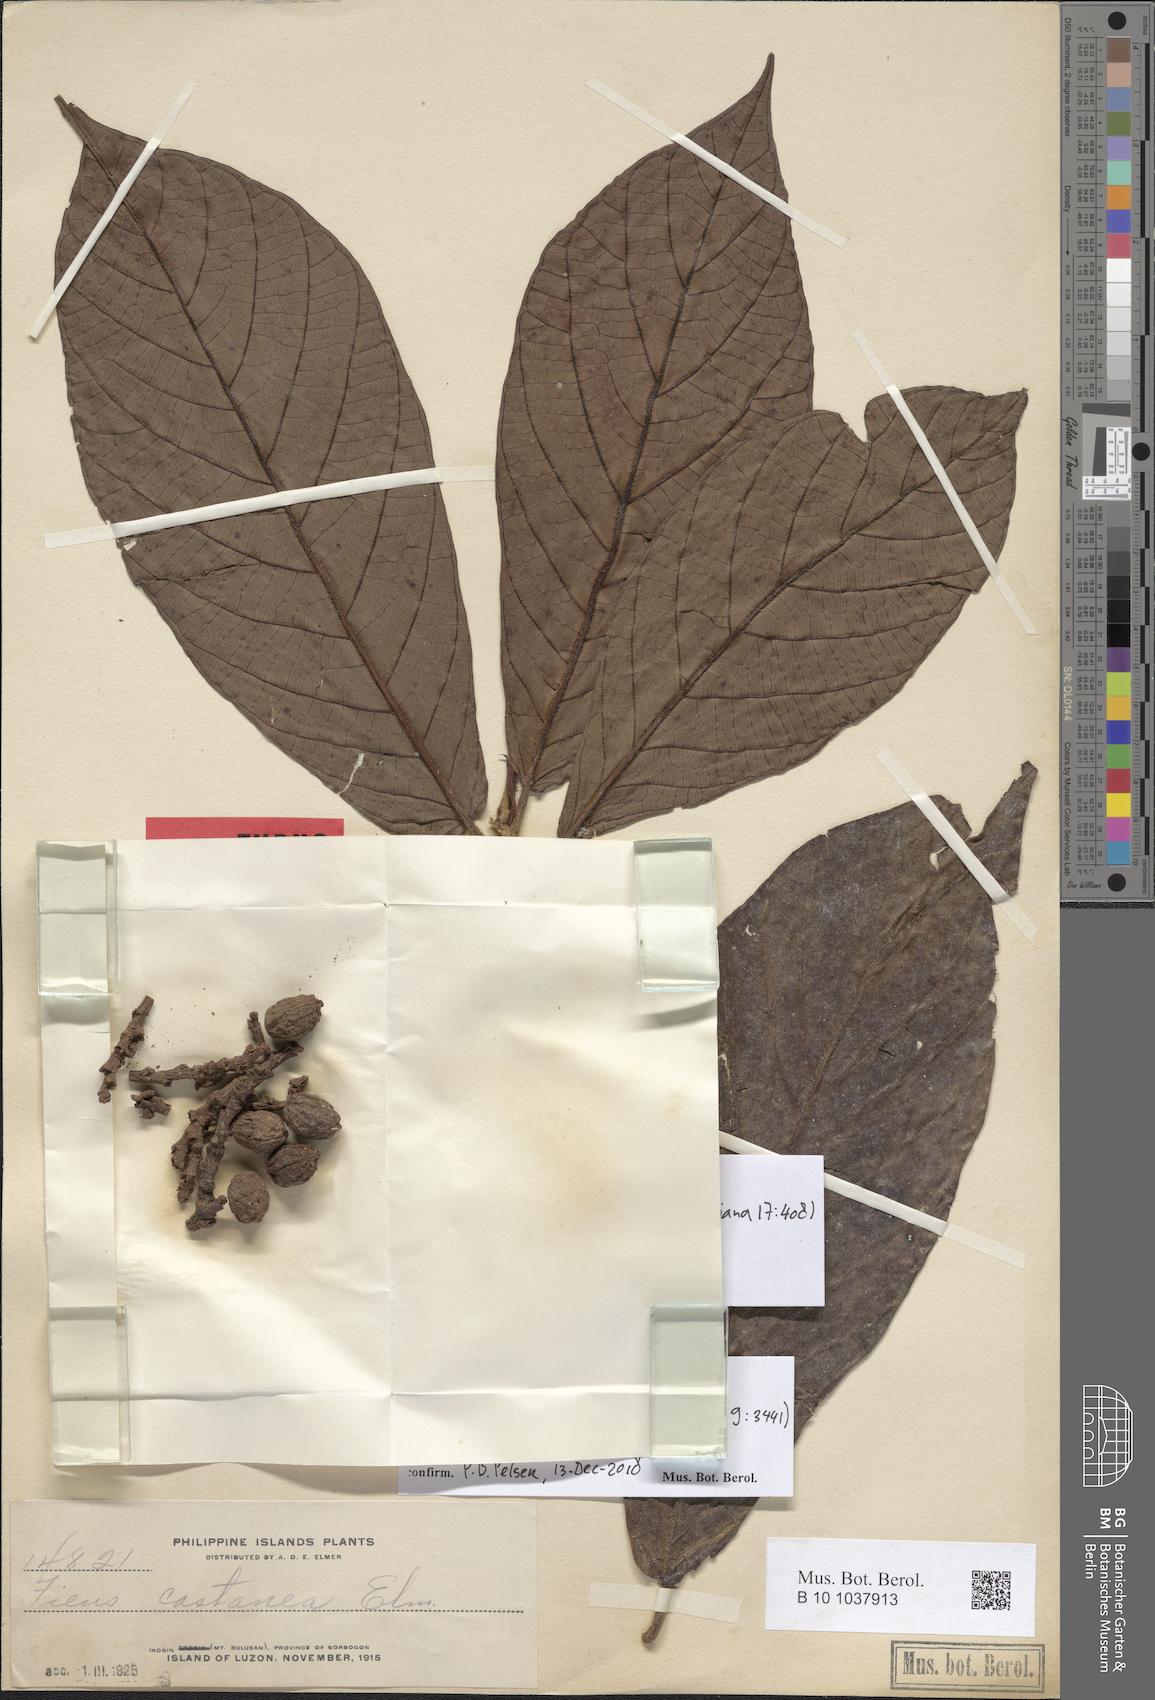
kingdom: Plantae
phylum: Tracheophyta
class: Magnoliopsida
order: Rosales
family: Moraceae
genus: Ficus
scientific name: Ficus carpenteriana
